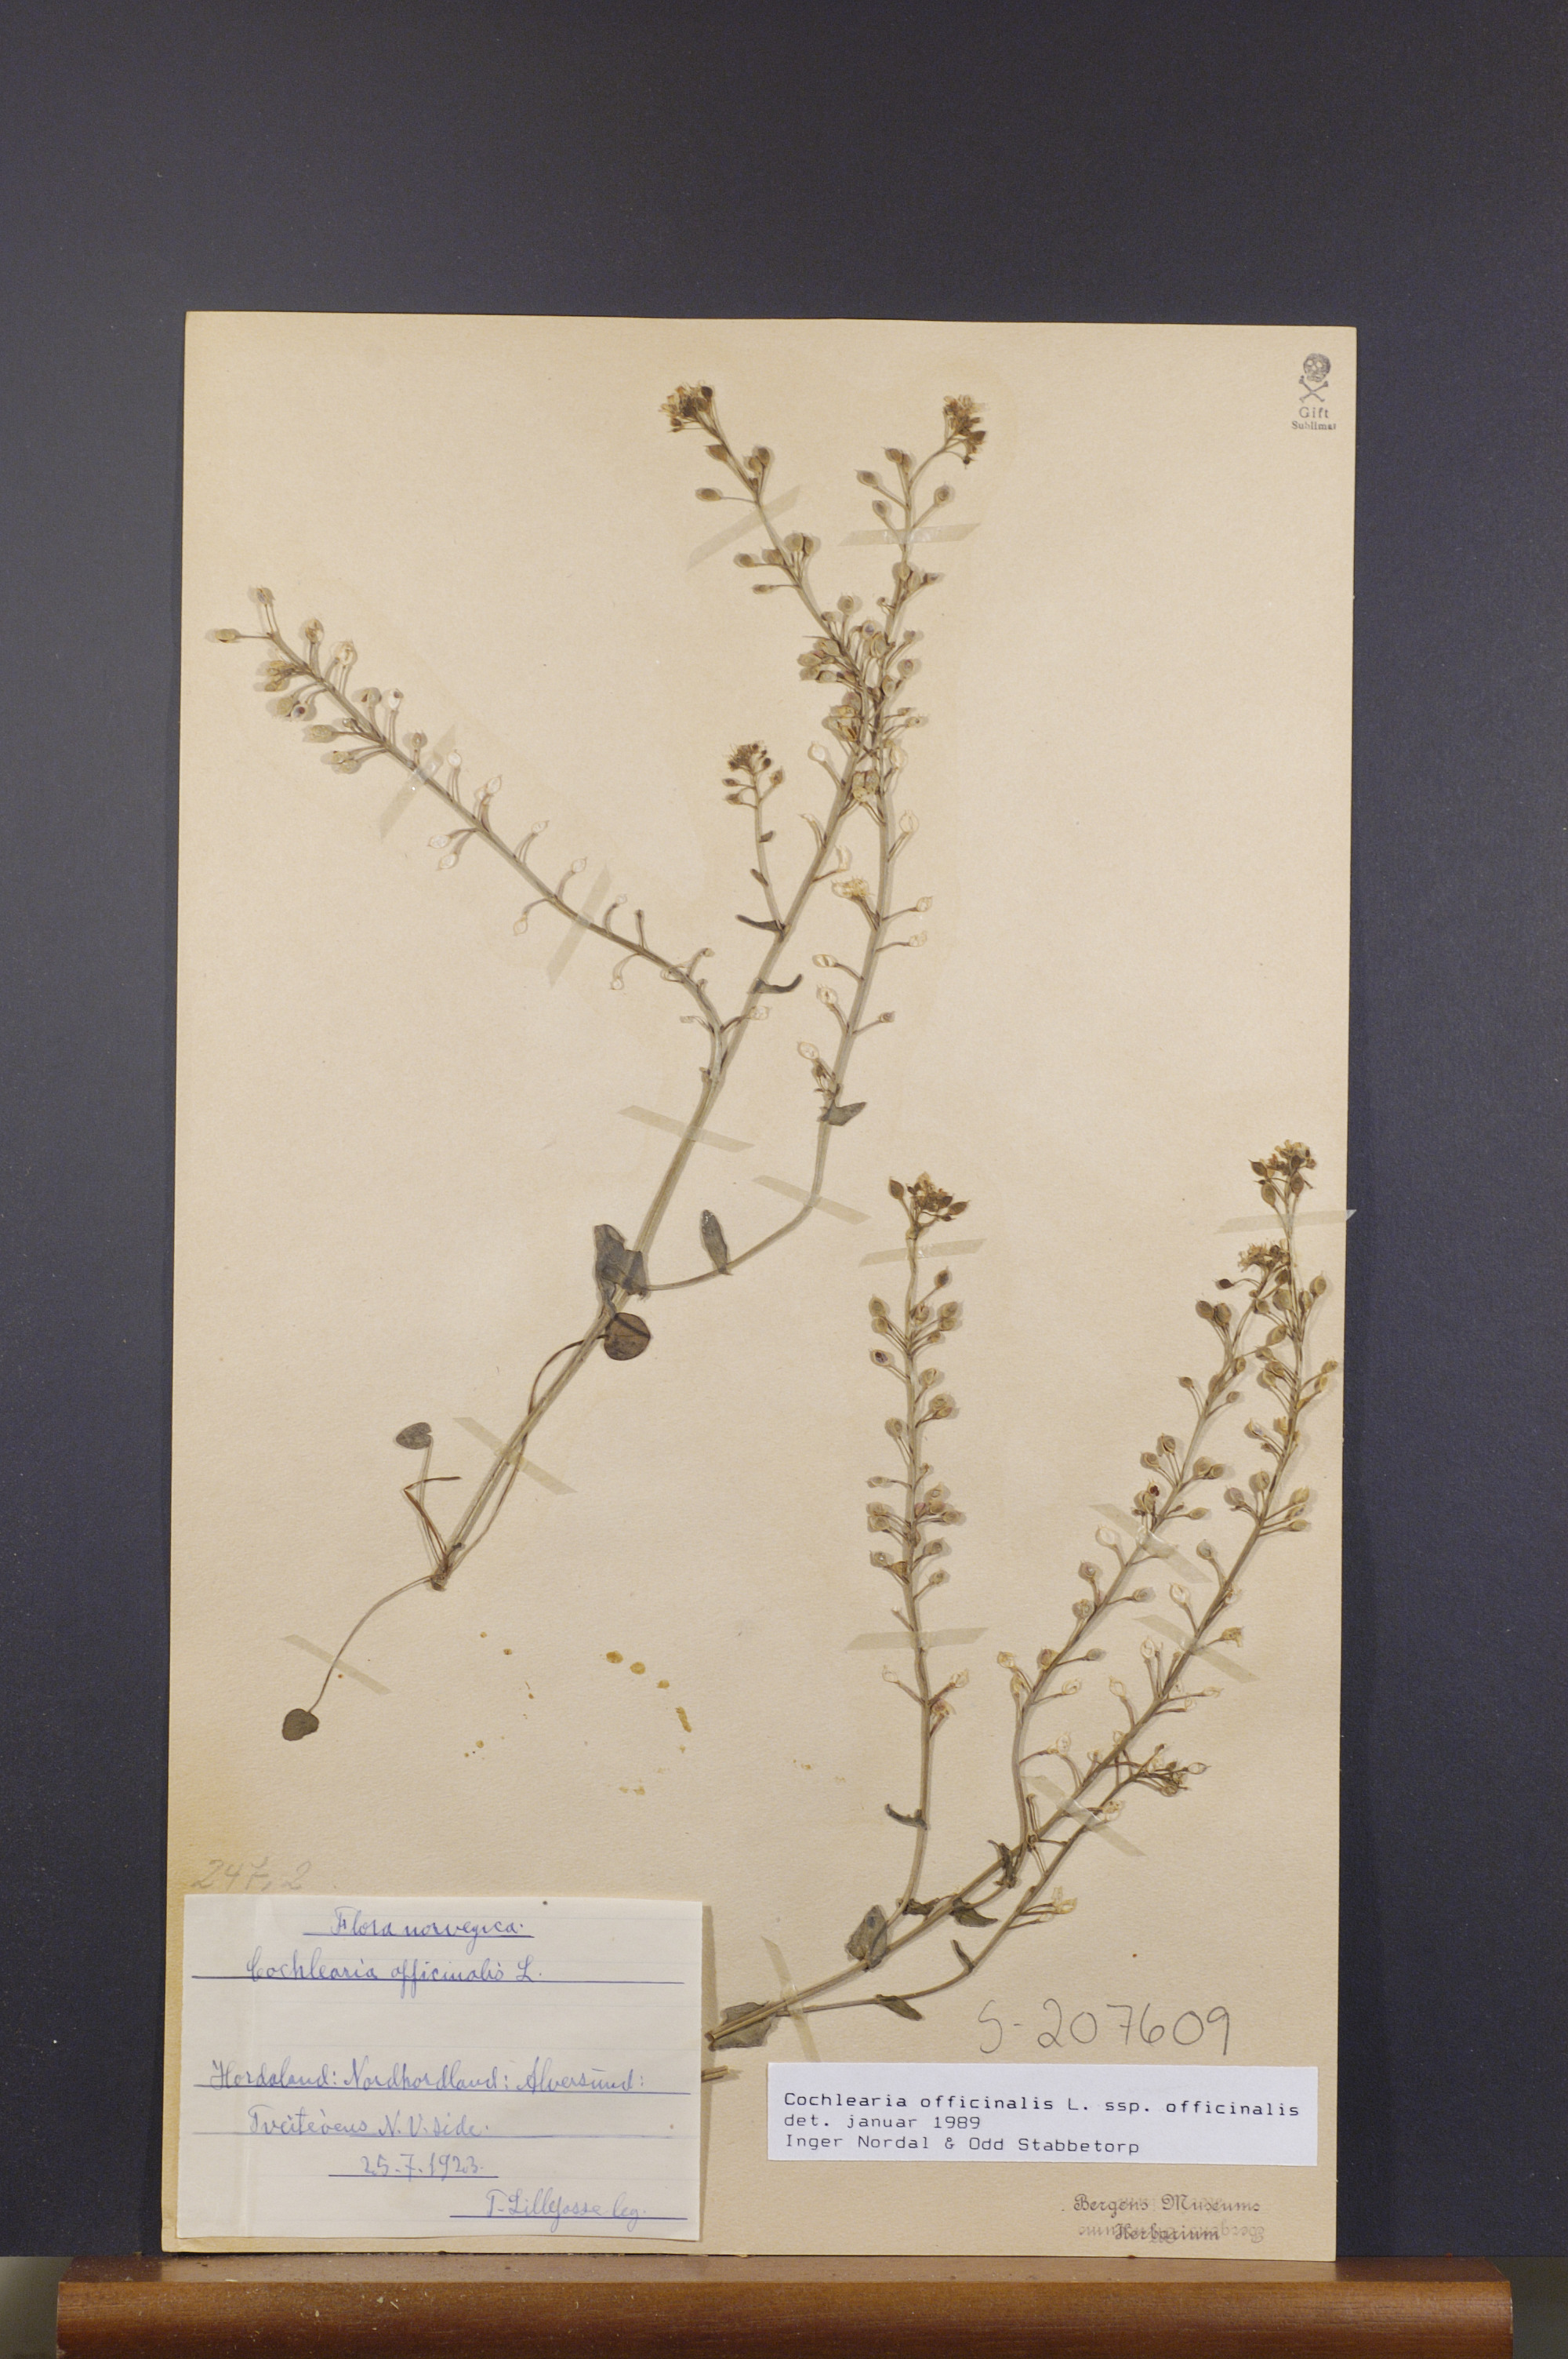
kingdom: Plantae
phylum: Tracheophyta
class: Magnoliopsida
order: Brassicales
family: Brassicaceae
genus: Cochlearia
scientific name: Cochlearia officinalis
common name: Scurvy-grass
